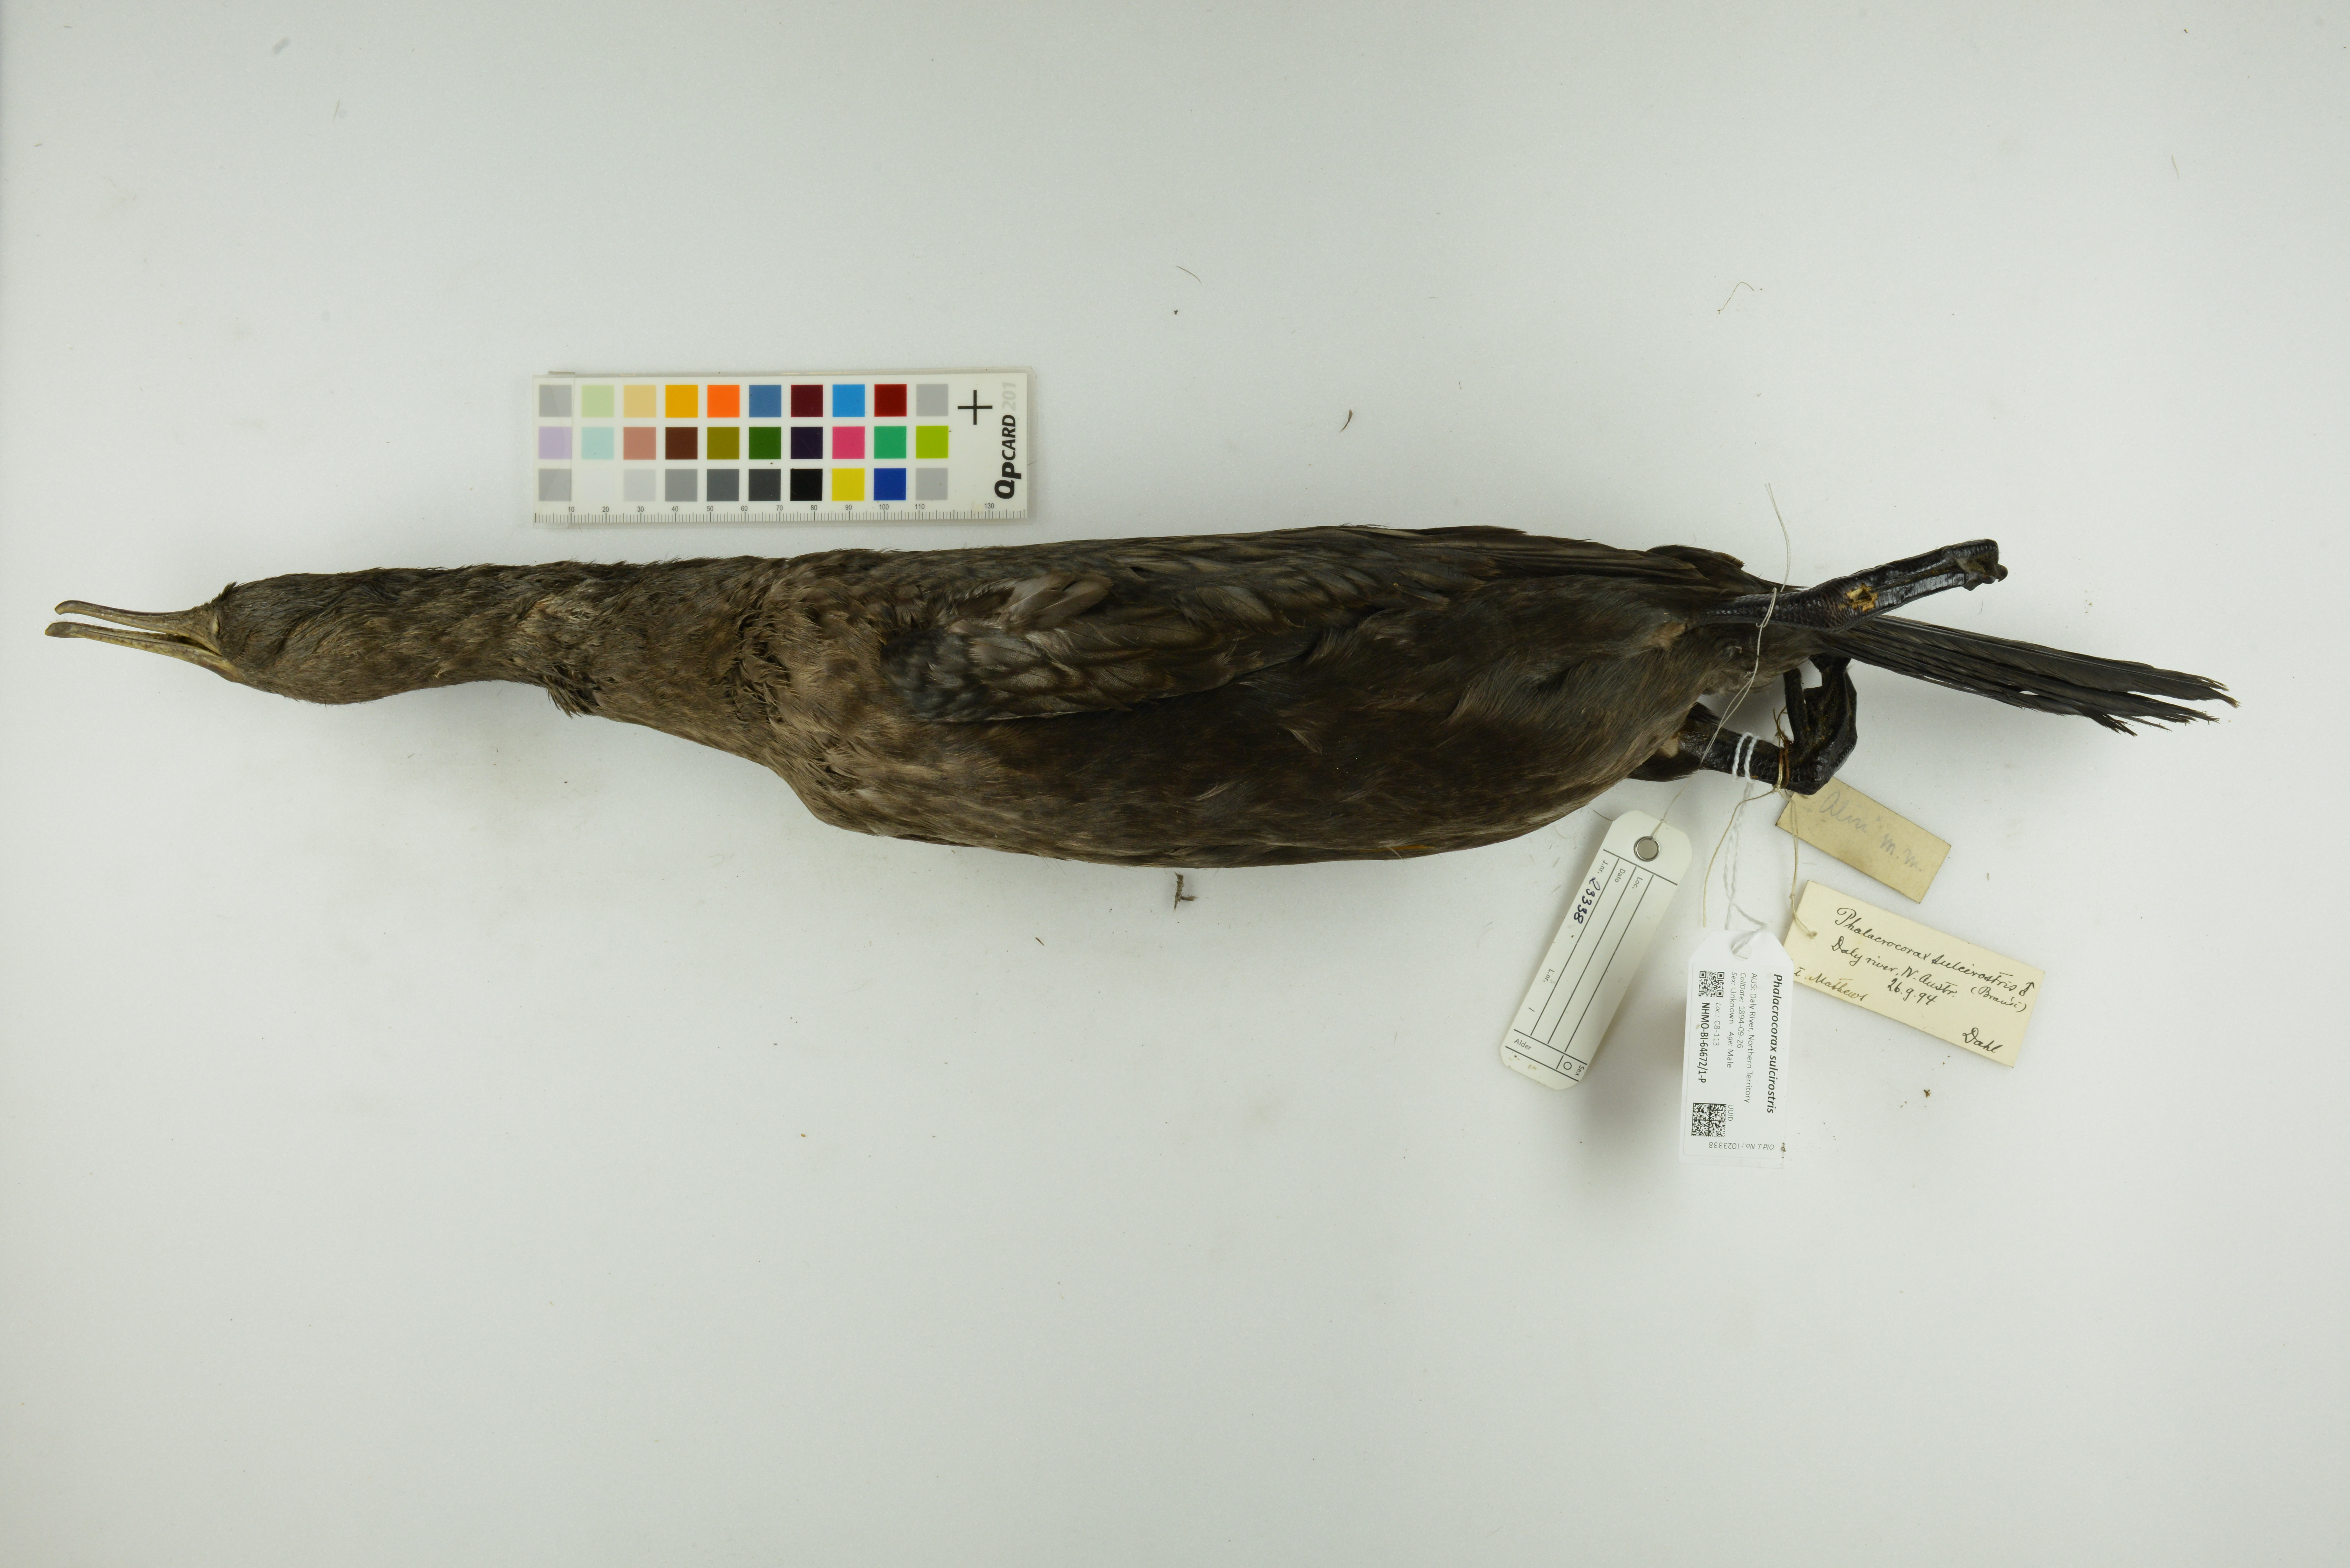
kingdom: Animalia
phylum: Chordata
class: Aves
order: Suliformes
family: Phalacrocoracidae
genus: Phalacrocorax
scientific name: Phalacrocorax sulcirostris
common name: Little black cormorant
